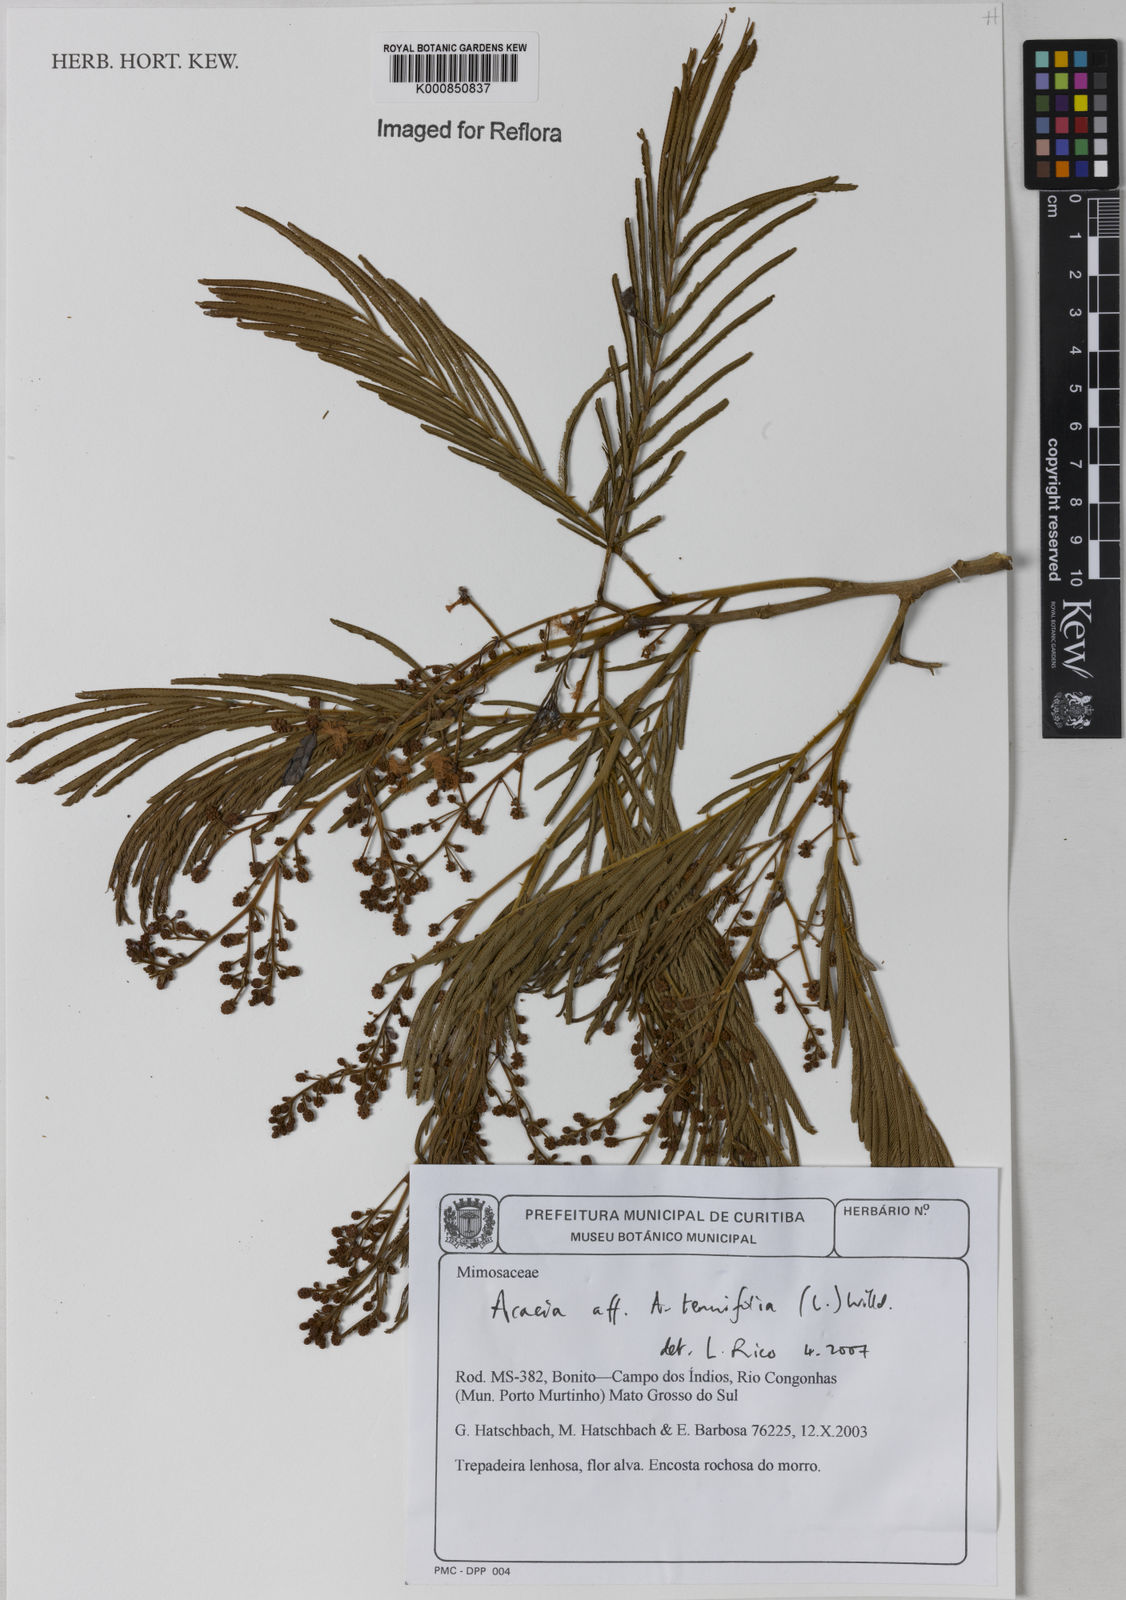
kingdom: Plantae
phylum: Tracheophyta
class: Magnoliopsida
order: Fabales
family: Fabaceae
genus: Senegalia
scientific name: Senegalia tenuifolia
